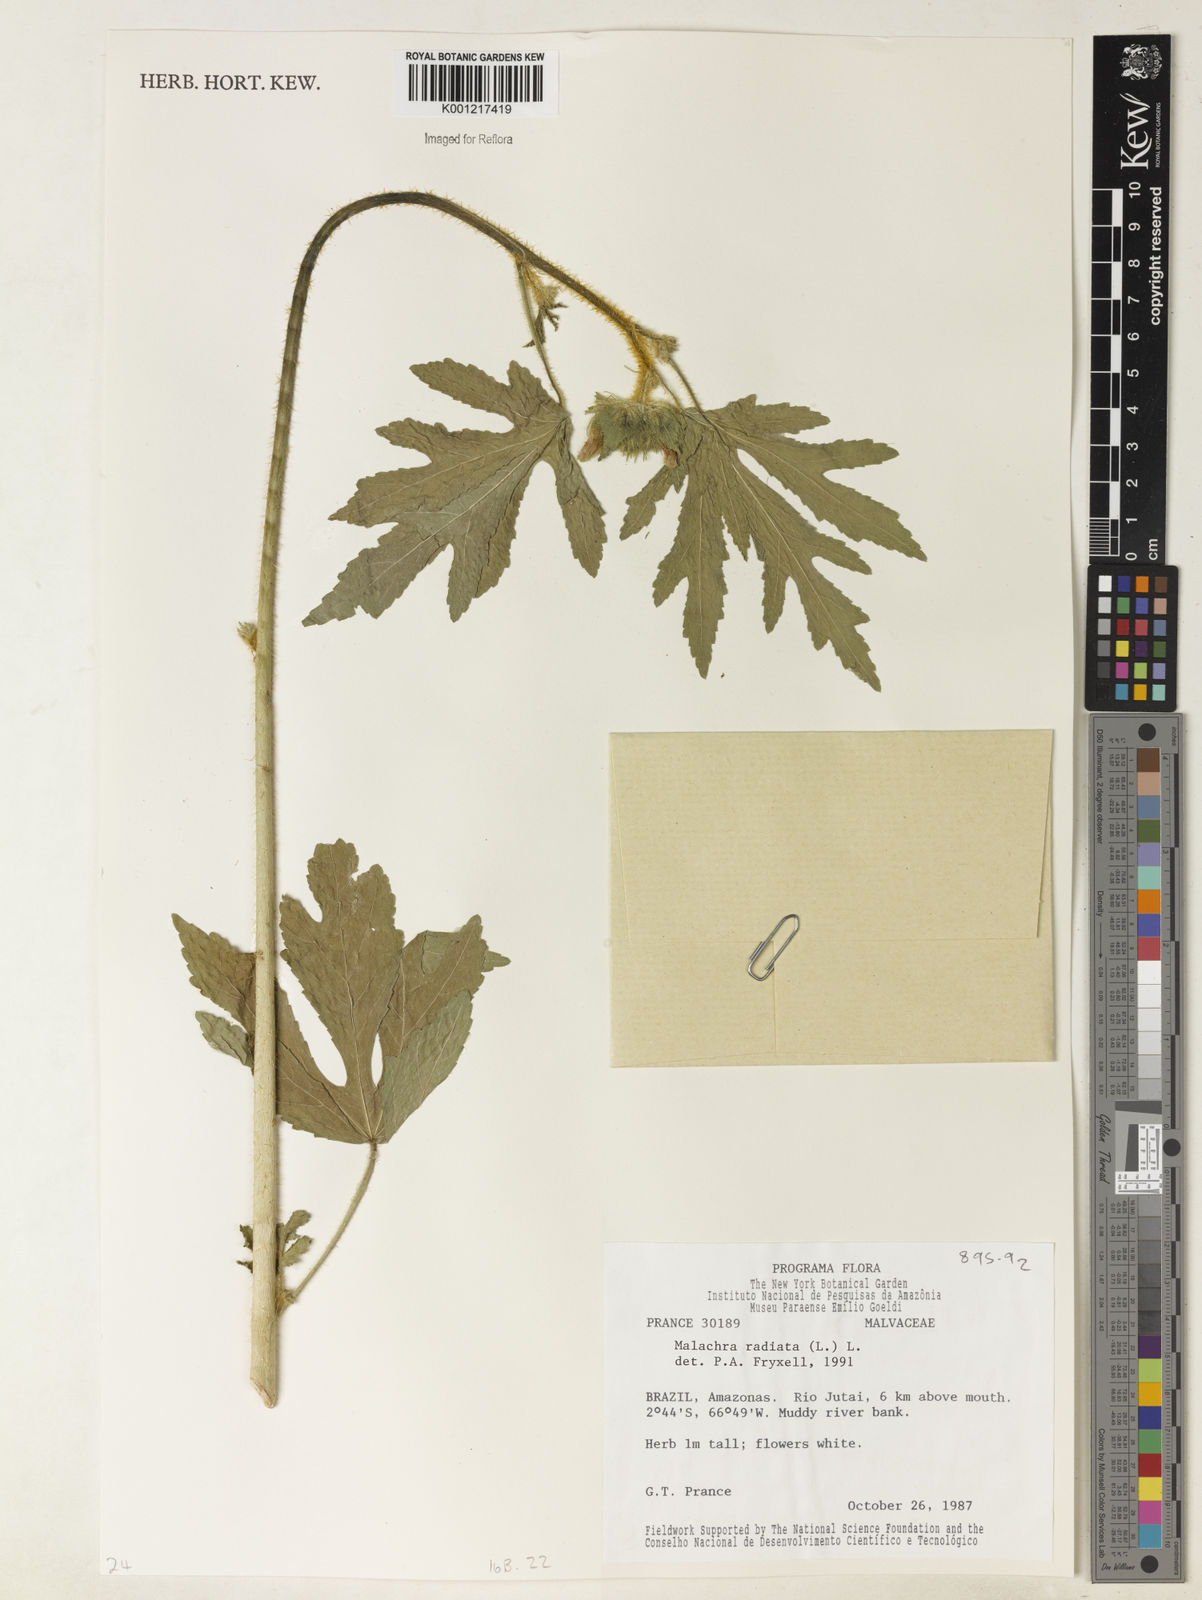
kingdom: Plantae
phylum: Tracheophyta
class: Magnoliopsida
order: Malvales
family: Malvaceae
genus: Malachra
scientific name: Malachra radiata
